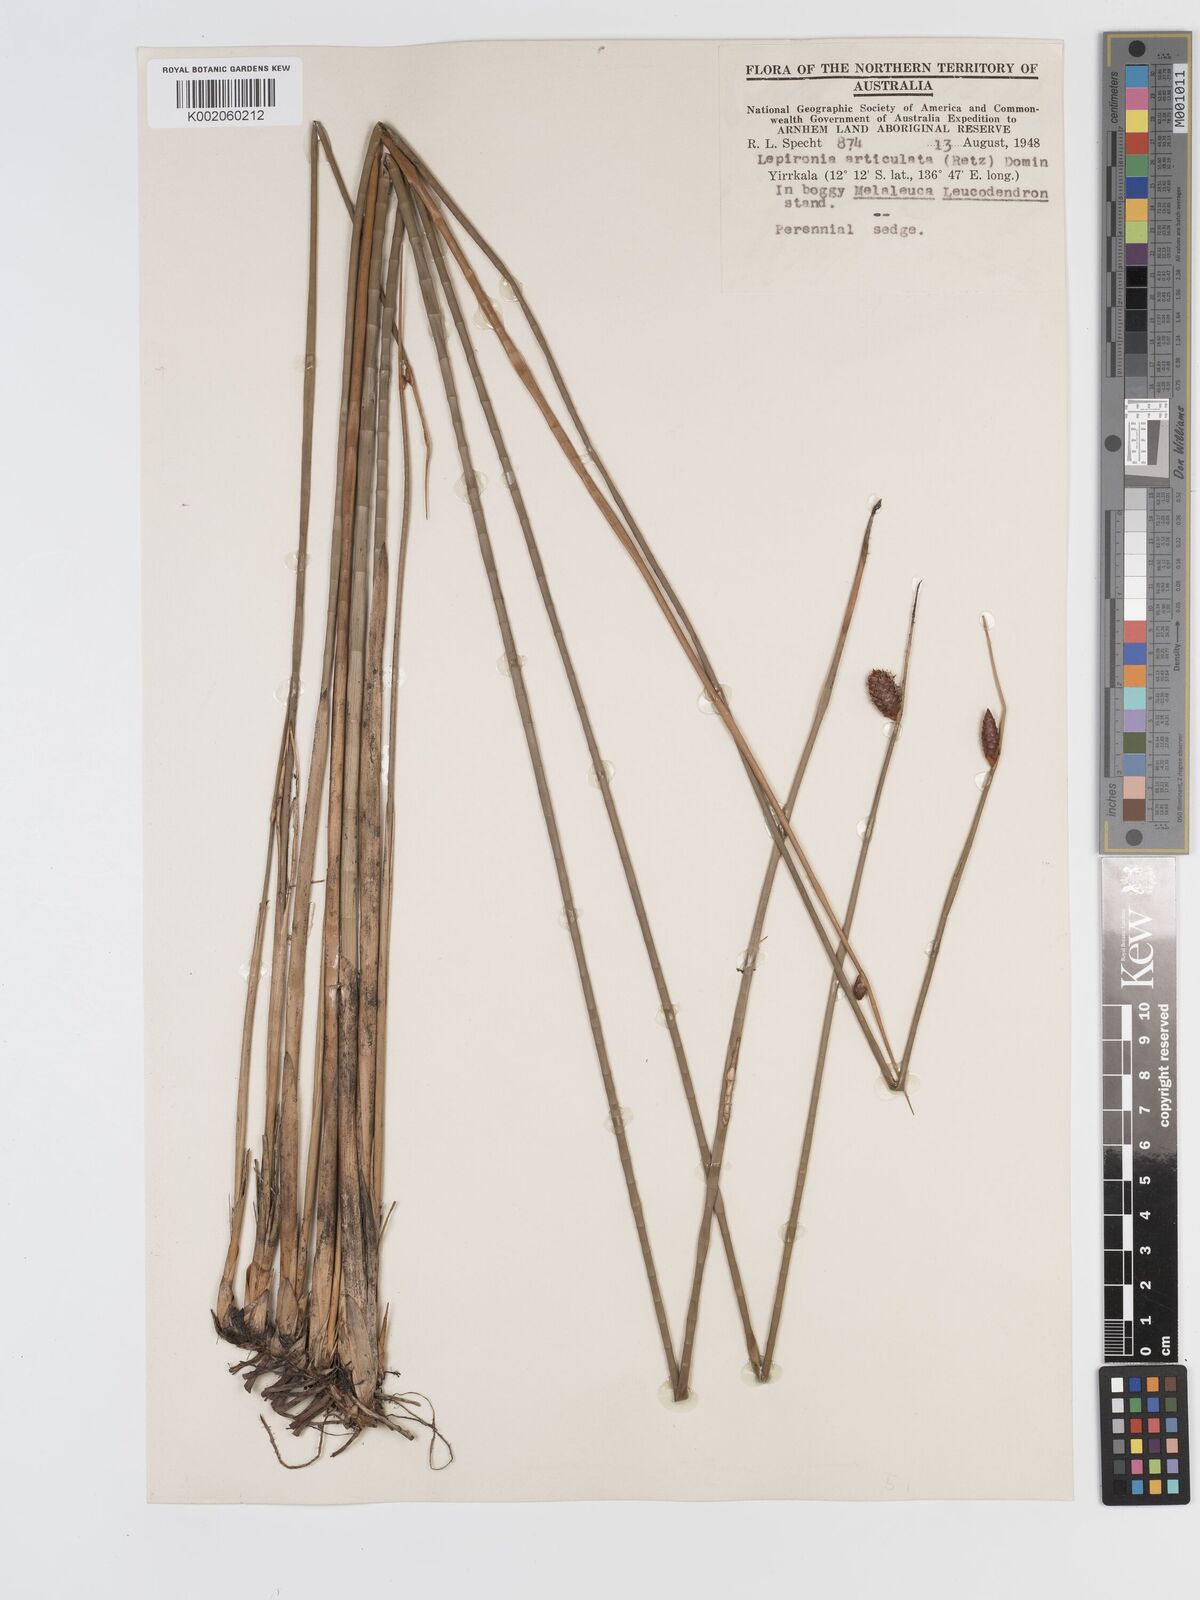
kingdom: Plantae
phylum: Tracheophyta
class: Liliopsida
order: Poales
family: Cyperaceae
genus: Lepironia
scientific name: Lepironia articulata
